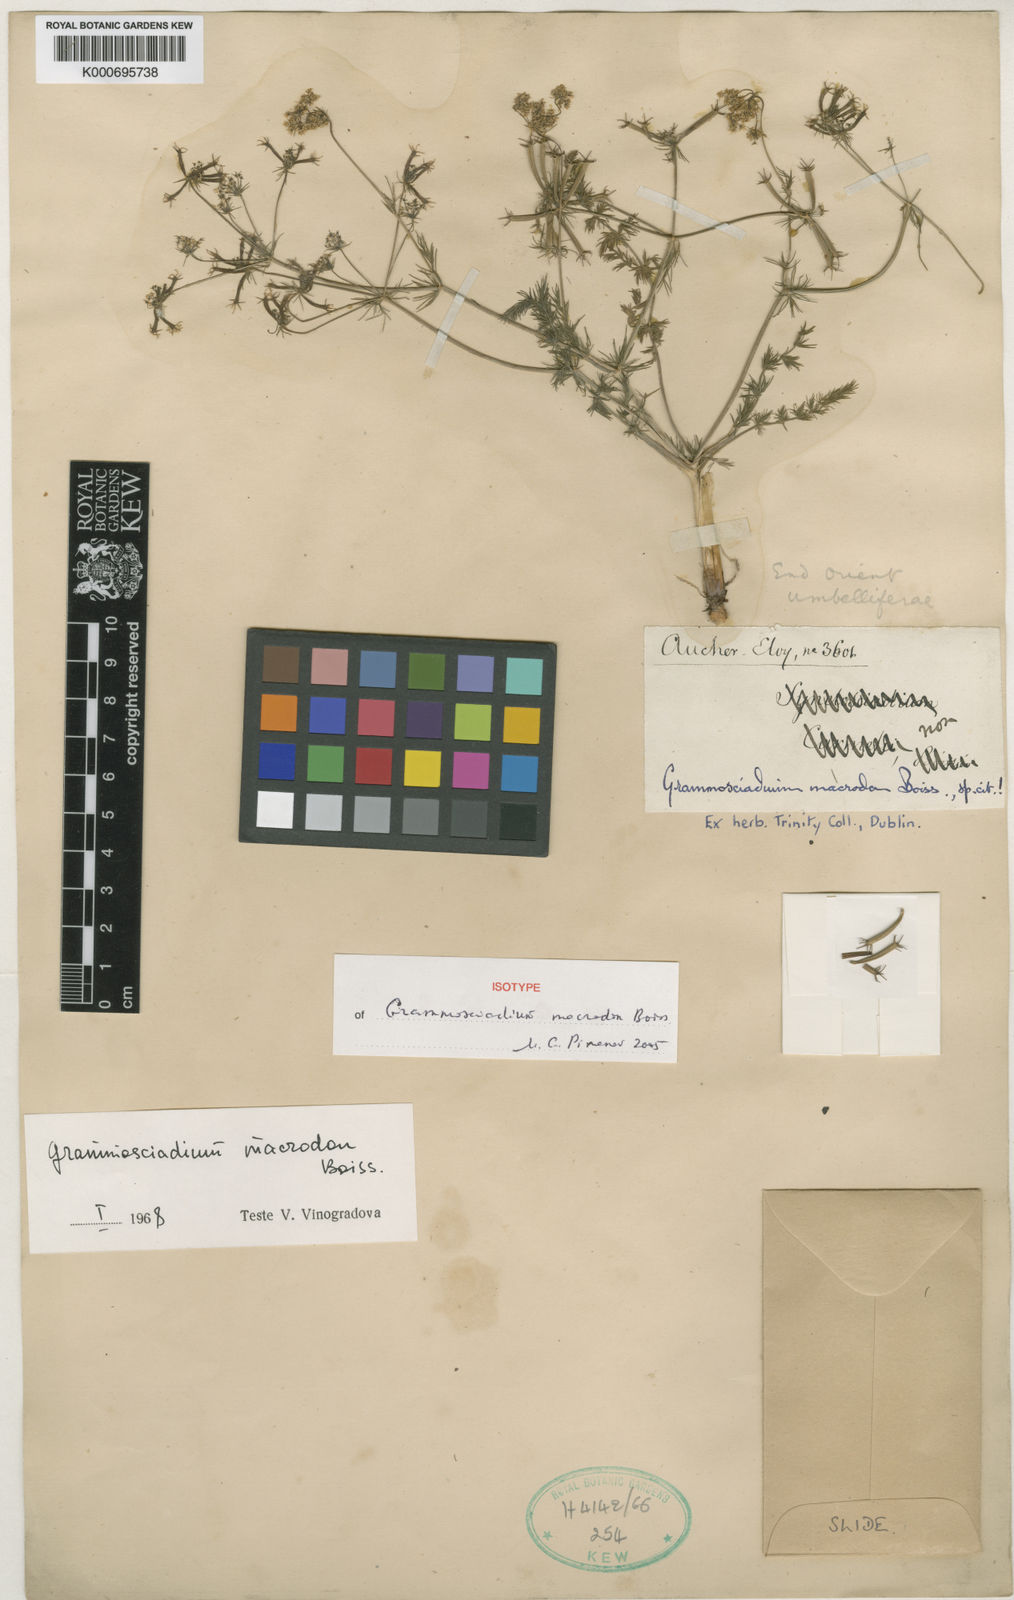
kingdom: Plantae
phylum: Tracheophyta
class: Magnoliopsida
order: Apiales
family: Apiaceae
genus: Grammosciadium
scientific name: Grammosciadium macrodon
